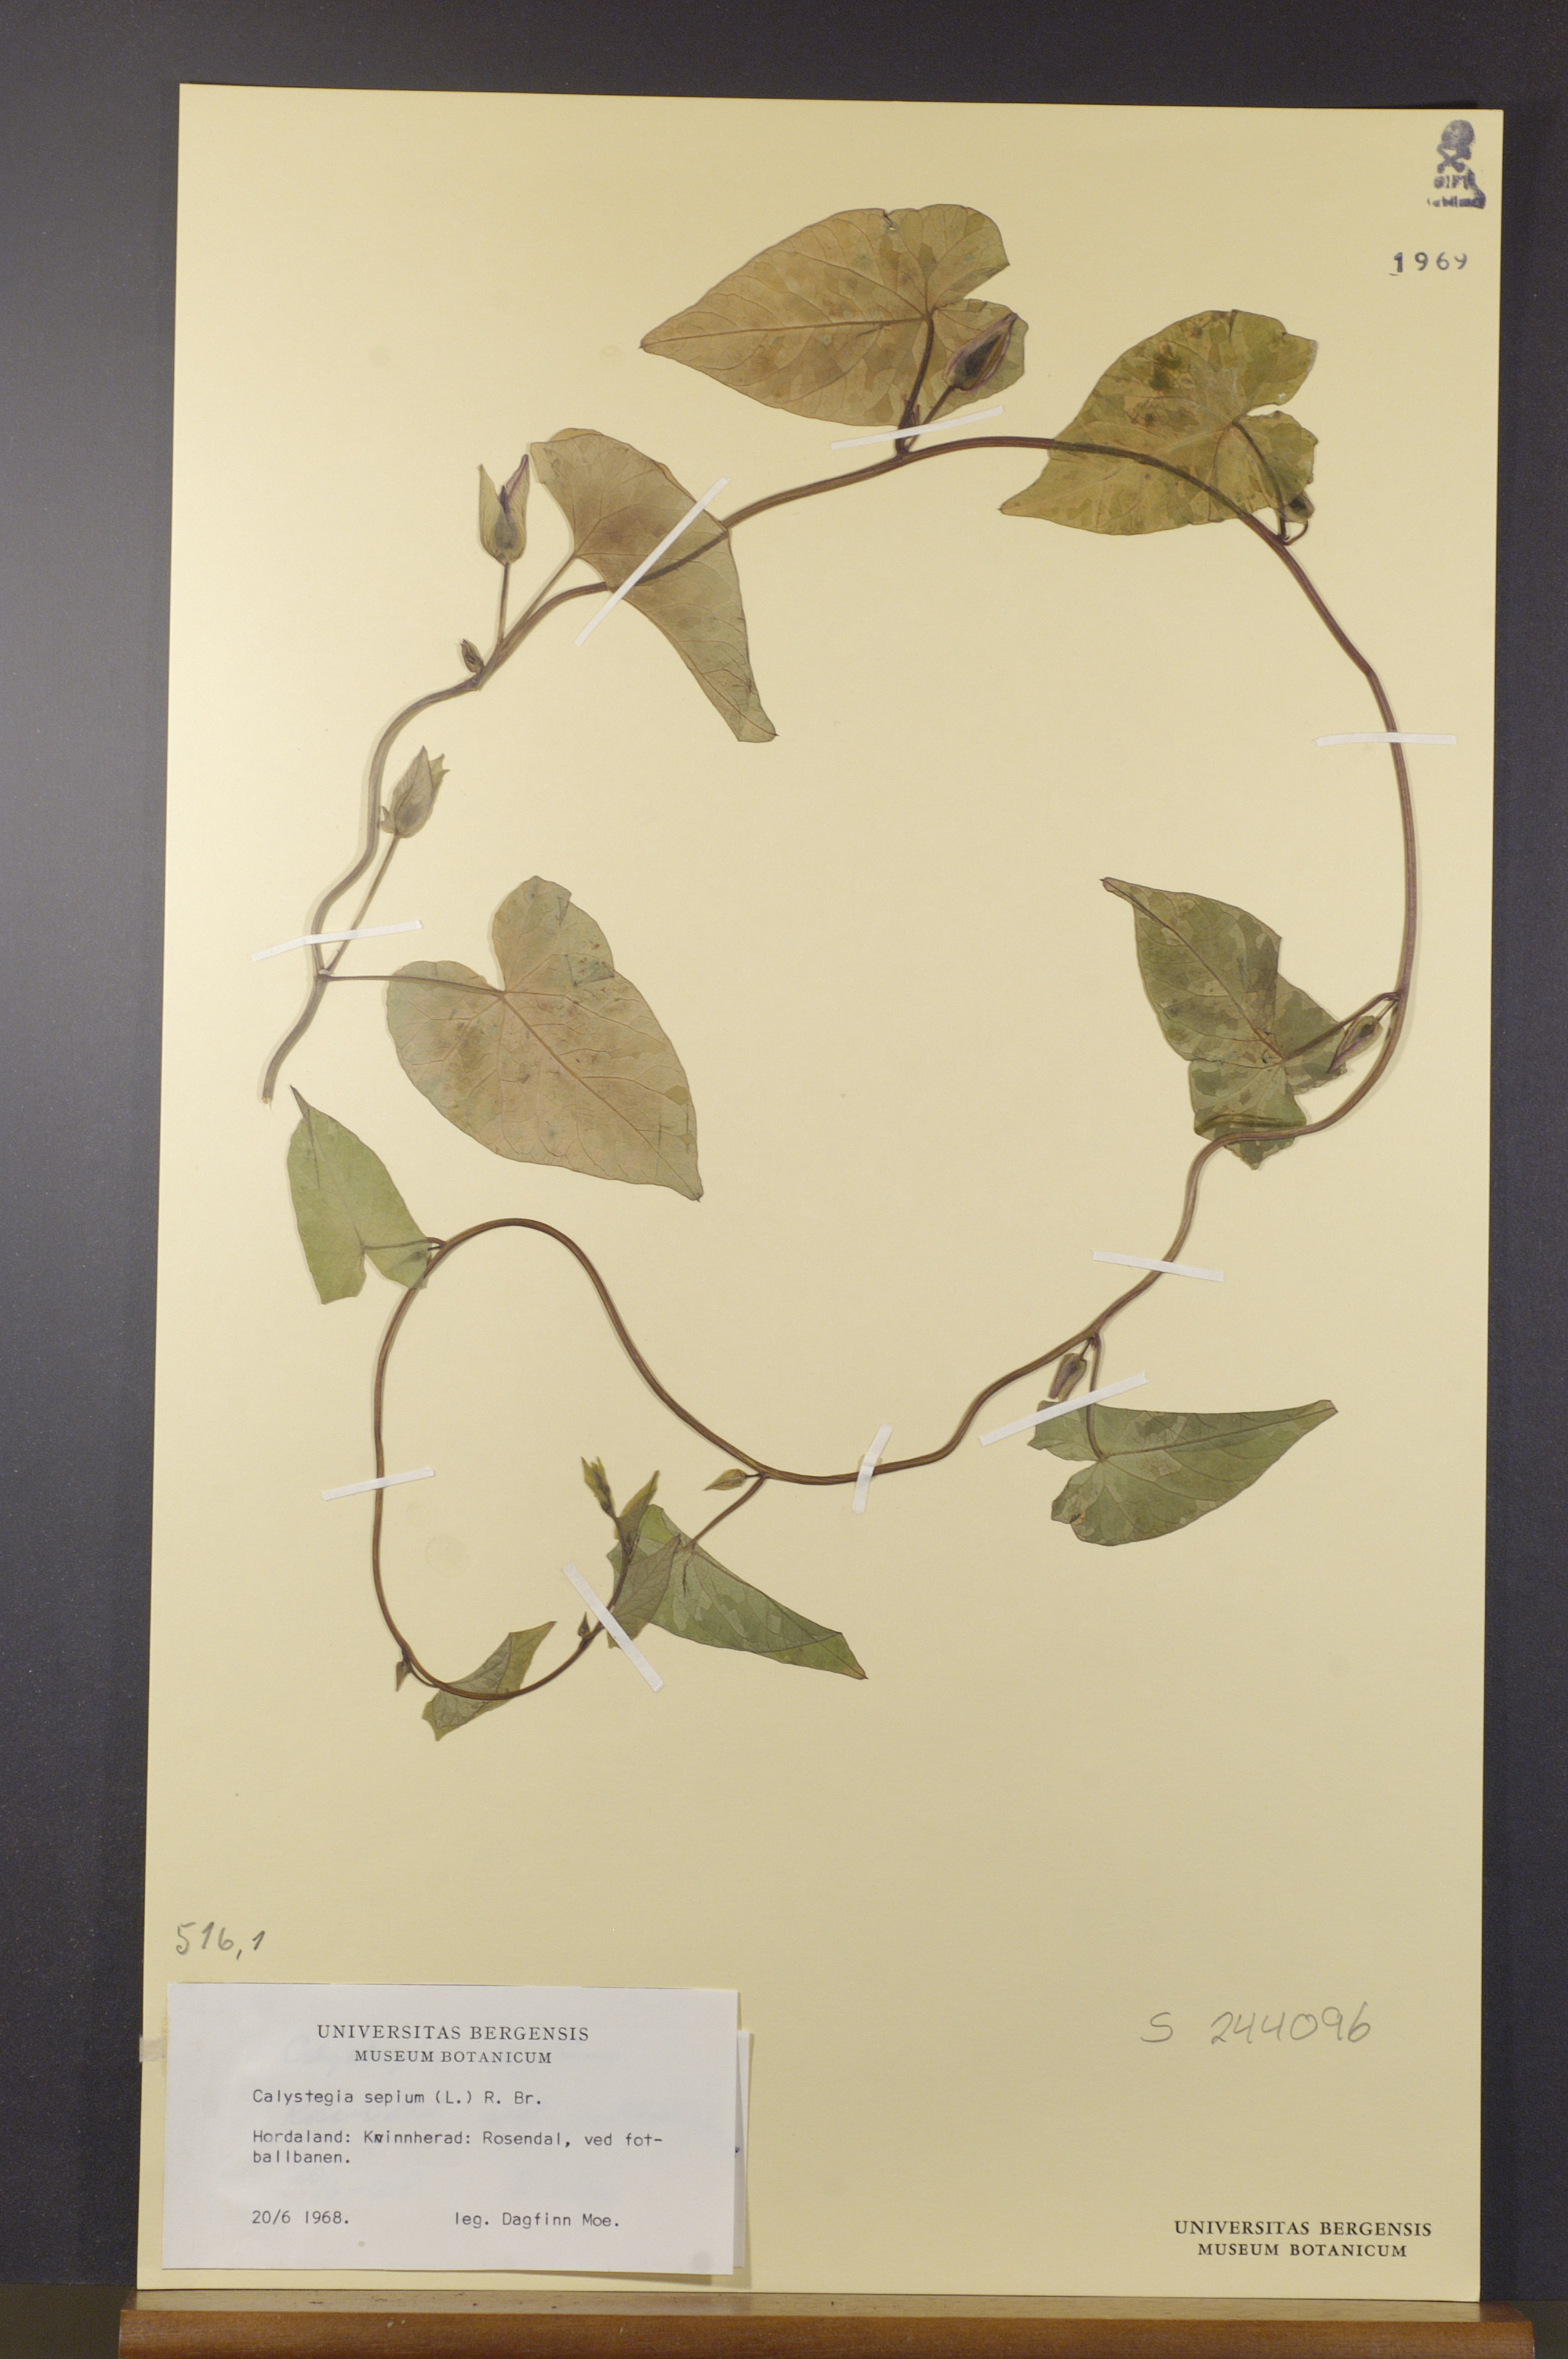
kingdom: Plantae
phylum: Tracheophyta
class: Magnoliopsida
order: Solanales
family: Convolvulaceae
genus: Calystegia
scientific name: Calystegia sepium
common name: Hedge bindweed
